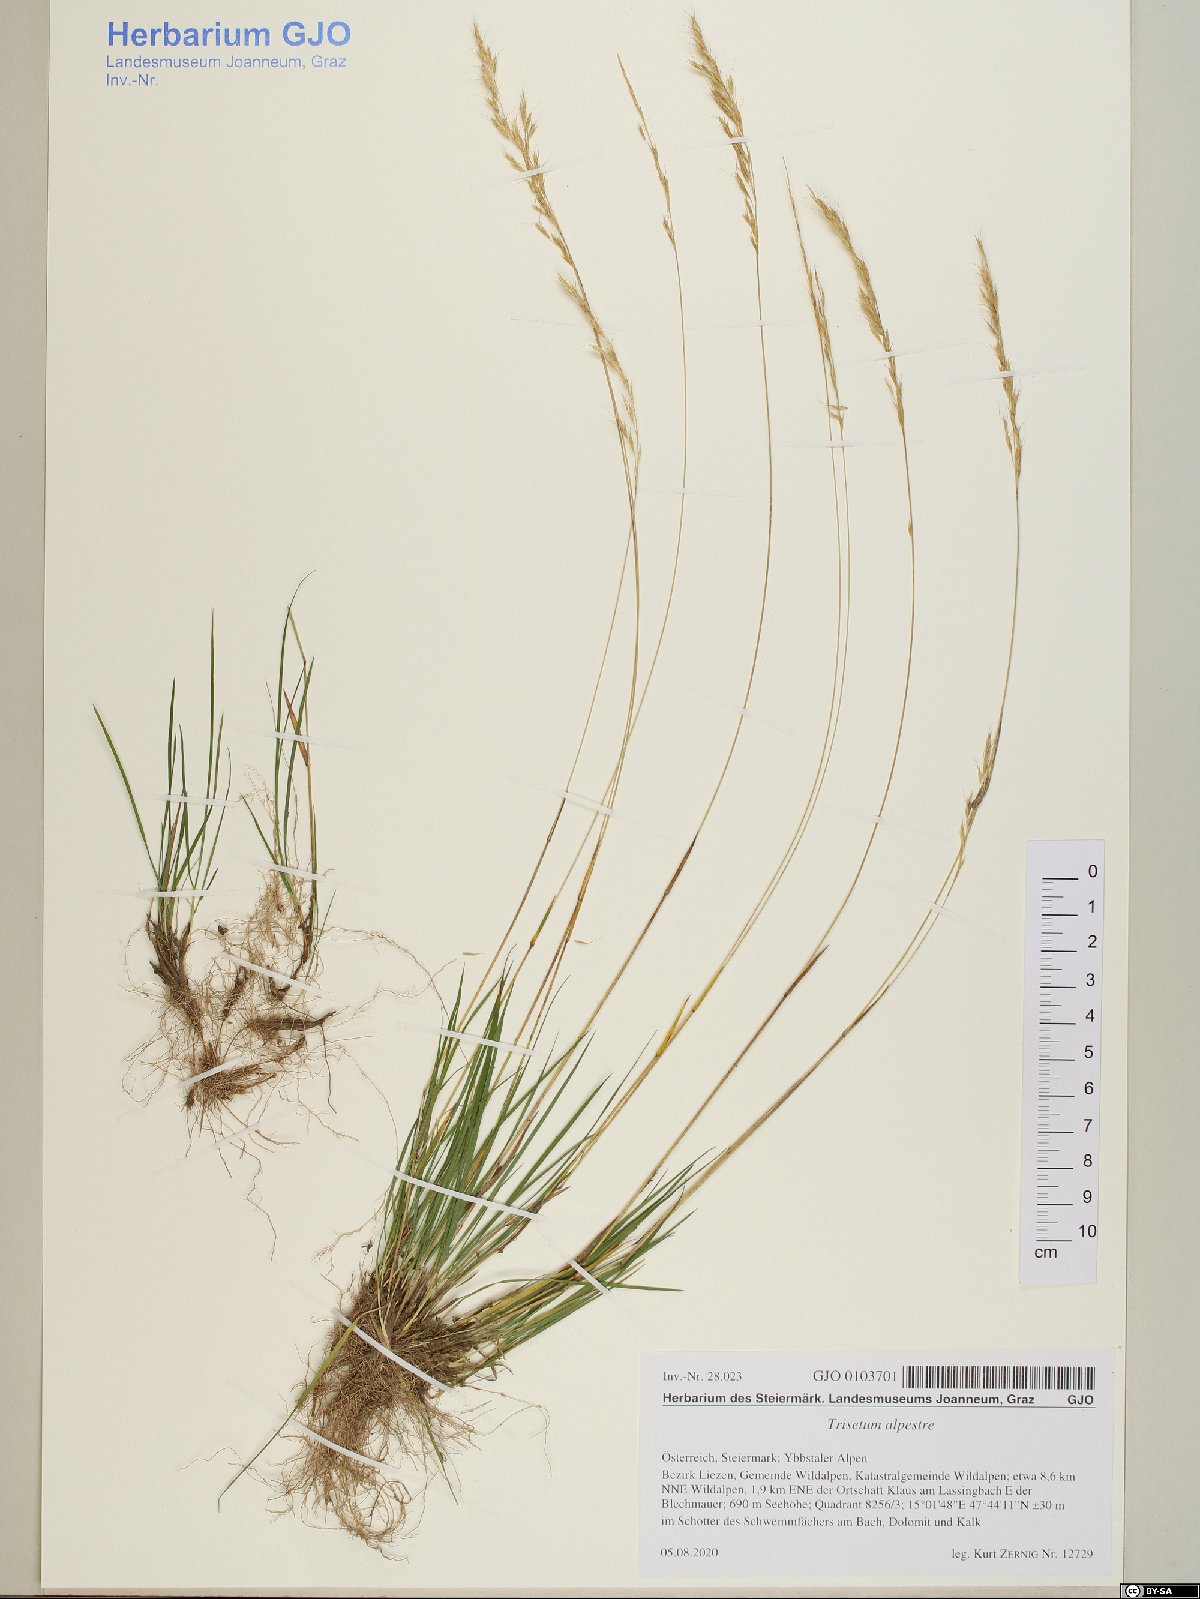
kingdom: Plantae
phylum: Tracheophyta
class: Liliopsida
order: Poales
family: Poaceae
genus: Trisetum
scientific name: Trisetum alpestre
